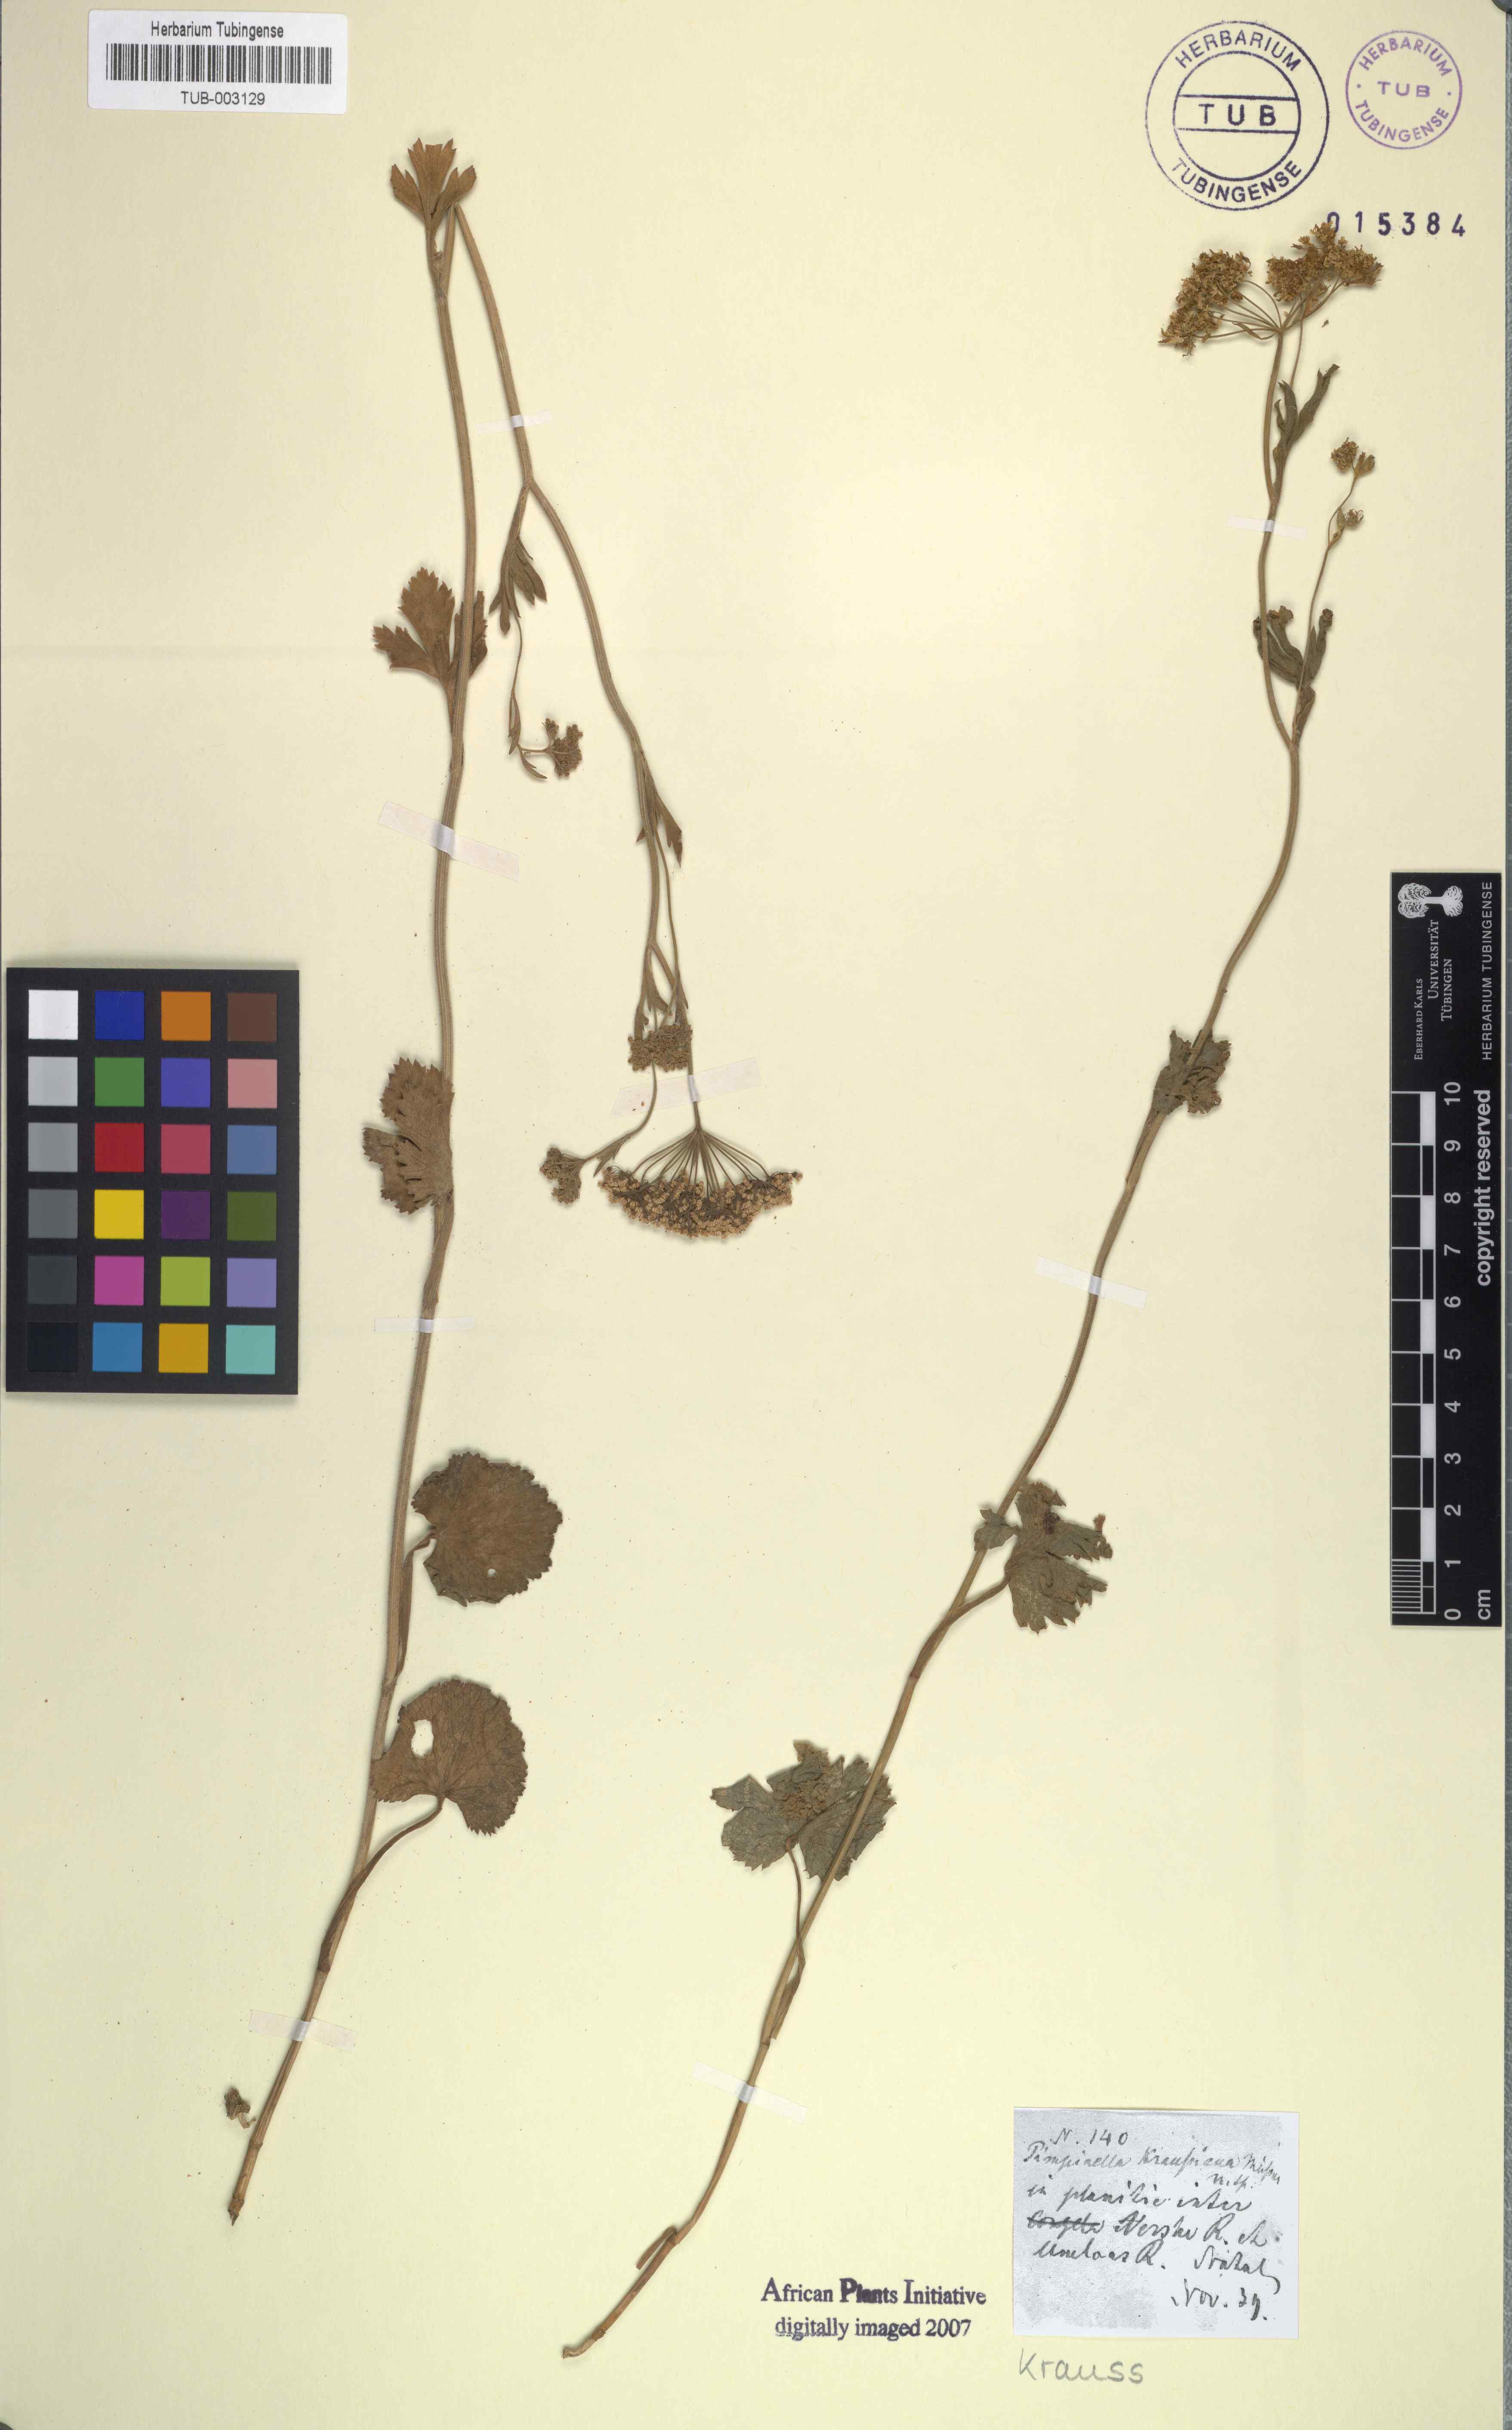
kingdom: Plantae
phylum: Tracheophyta
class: Magnoliopsida
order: Apiales
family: Apiaceae
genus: Pimpinella
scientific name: Pimpinella caffra
